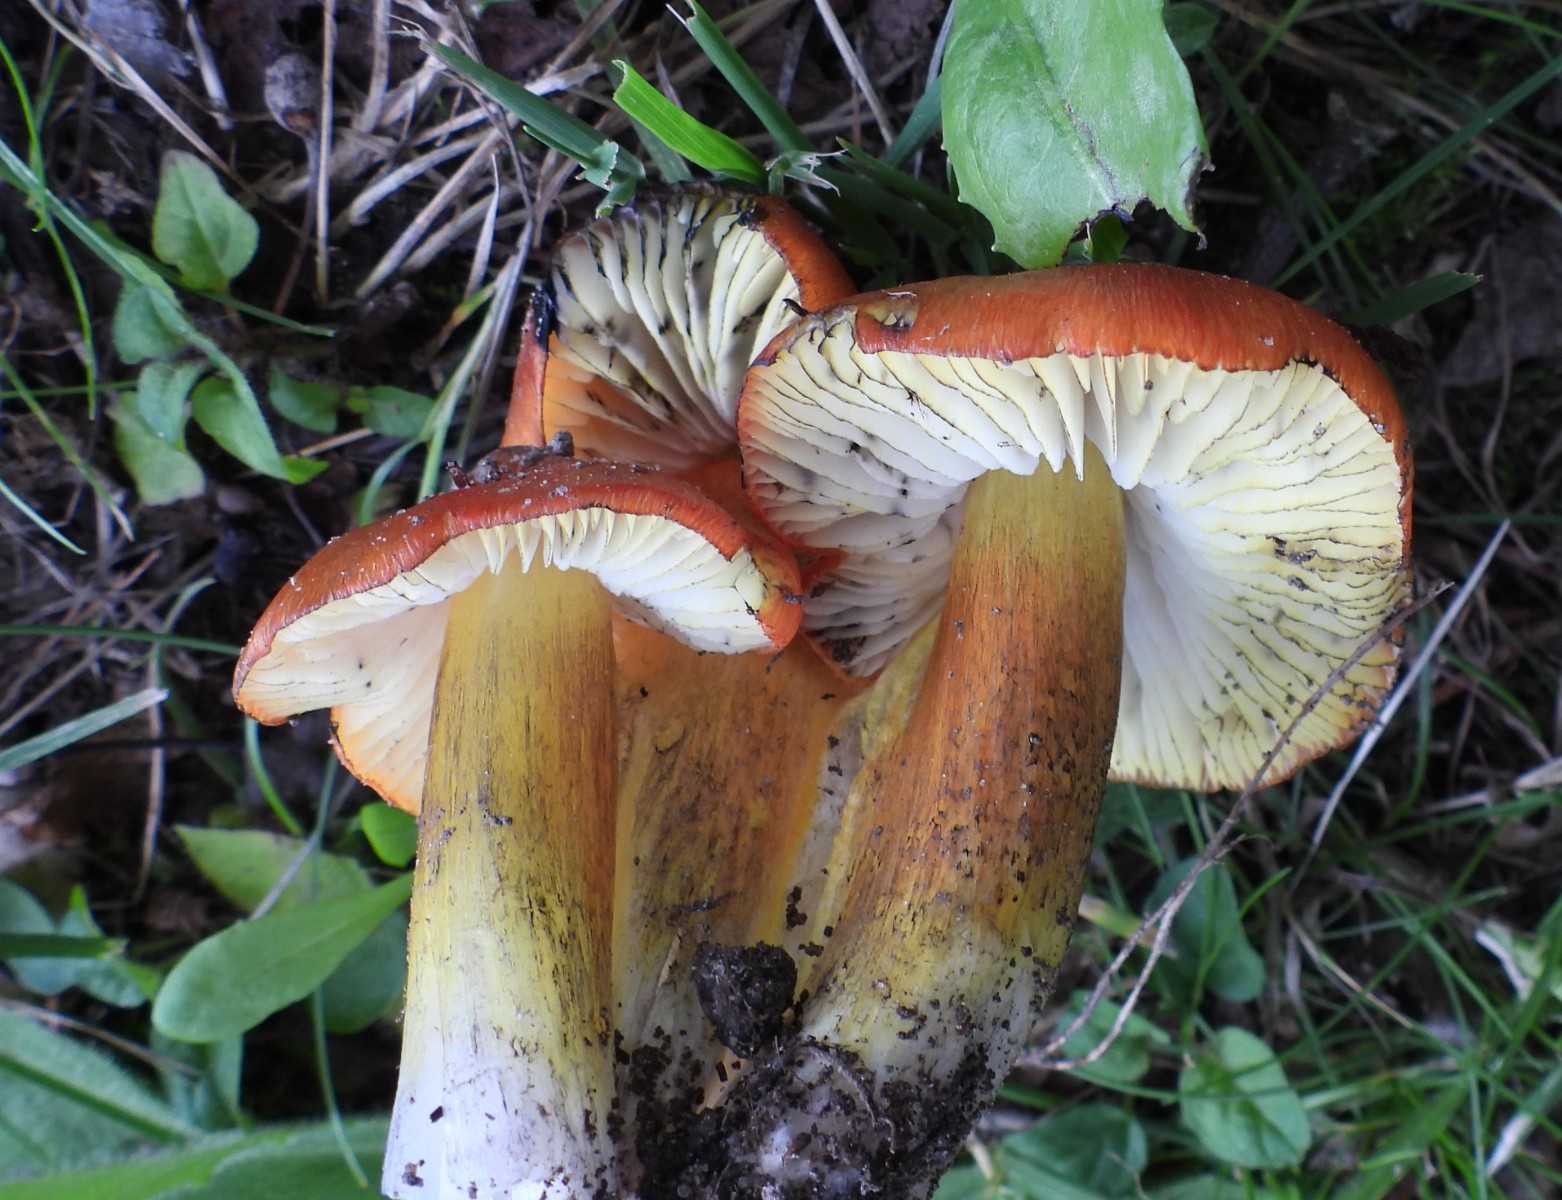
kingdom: Fungi
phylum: Basidiomycota
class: Agaricomycetes
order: Agaricales
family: Hygrophoraceae
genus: Hygrocybe
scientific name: Hygrocybe conica
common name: kegle-vokshat
